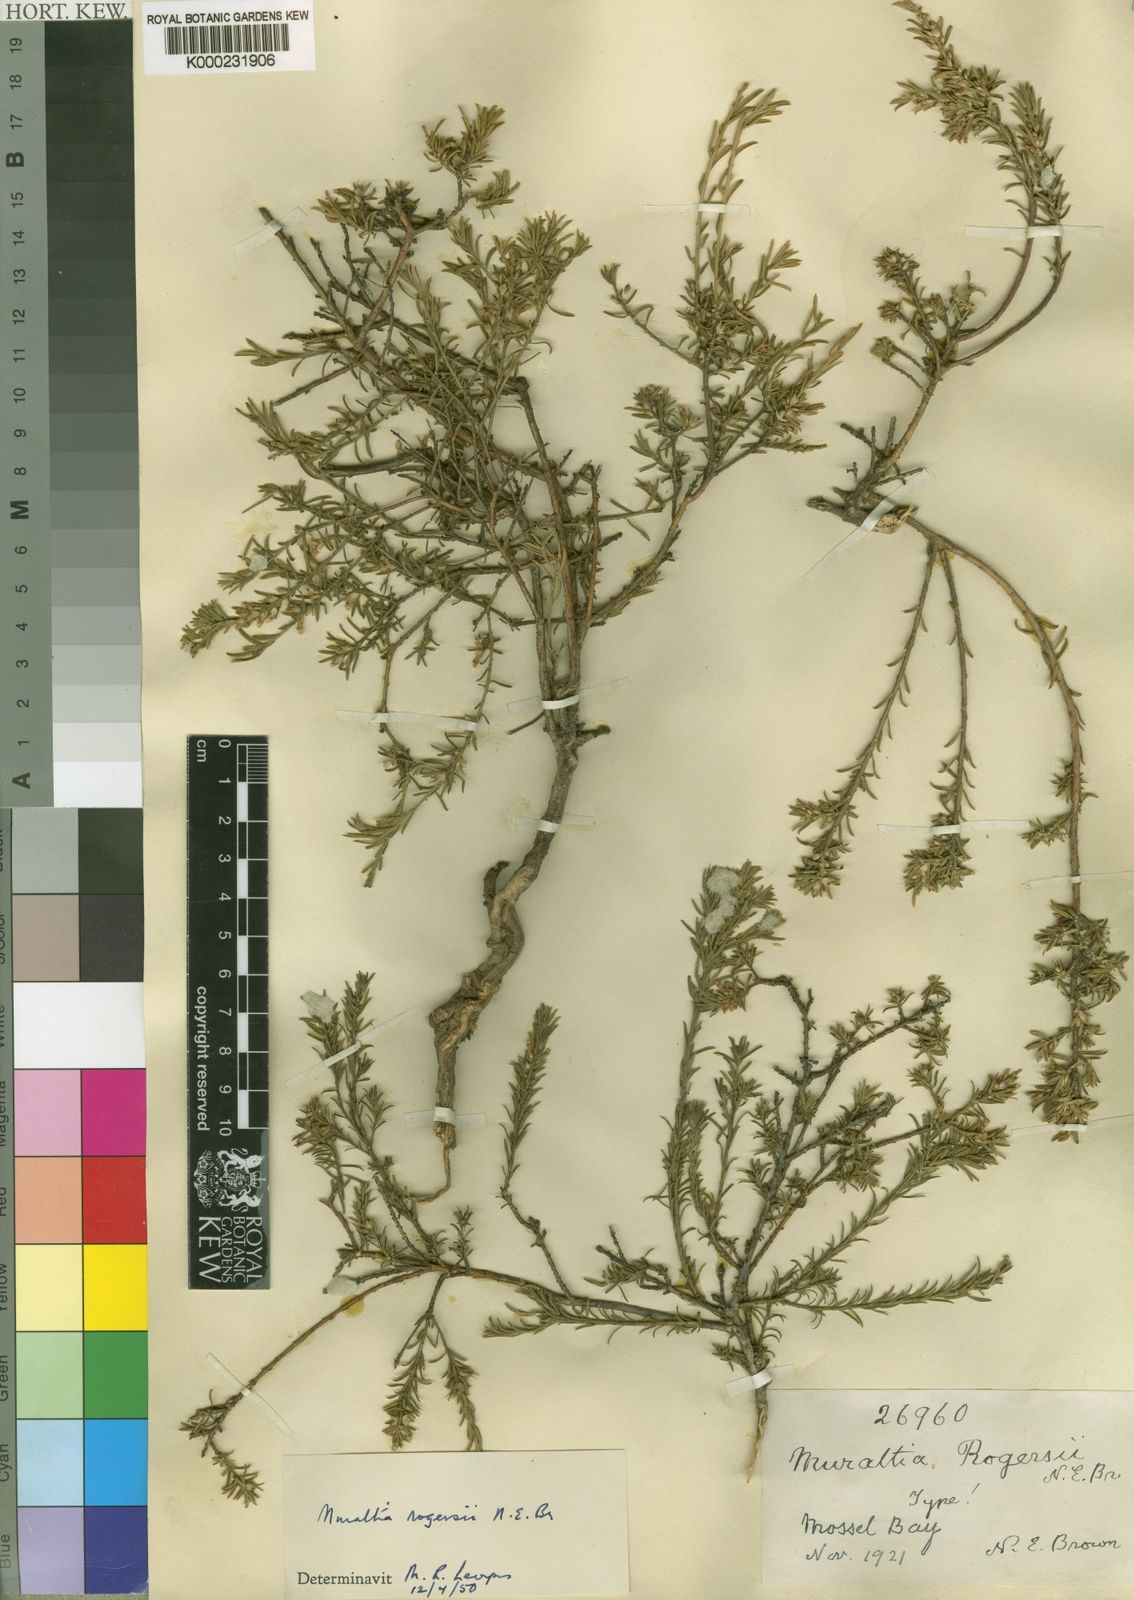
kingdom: Plantae
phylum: Tracheophyta
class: Magnoliopsida
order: Fabales
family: Polygalaceae
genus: Muraltia
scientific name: Muraltia empleuridioides
